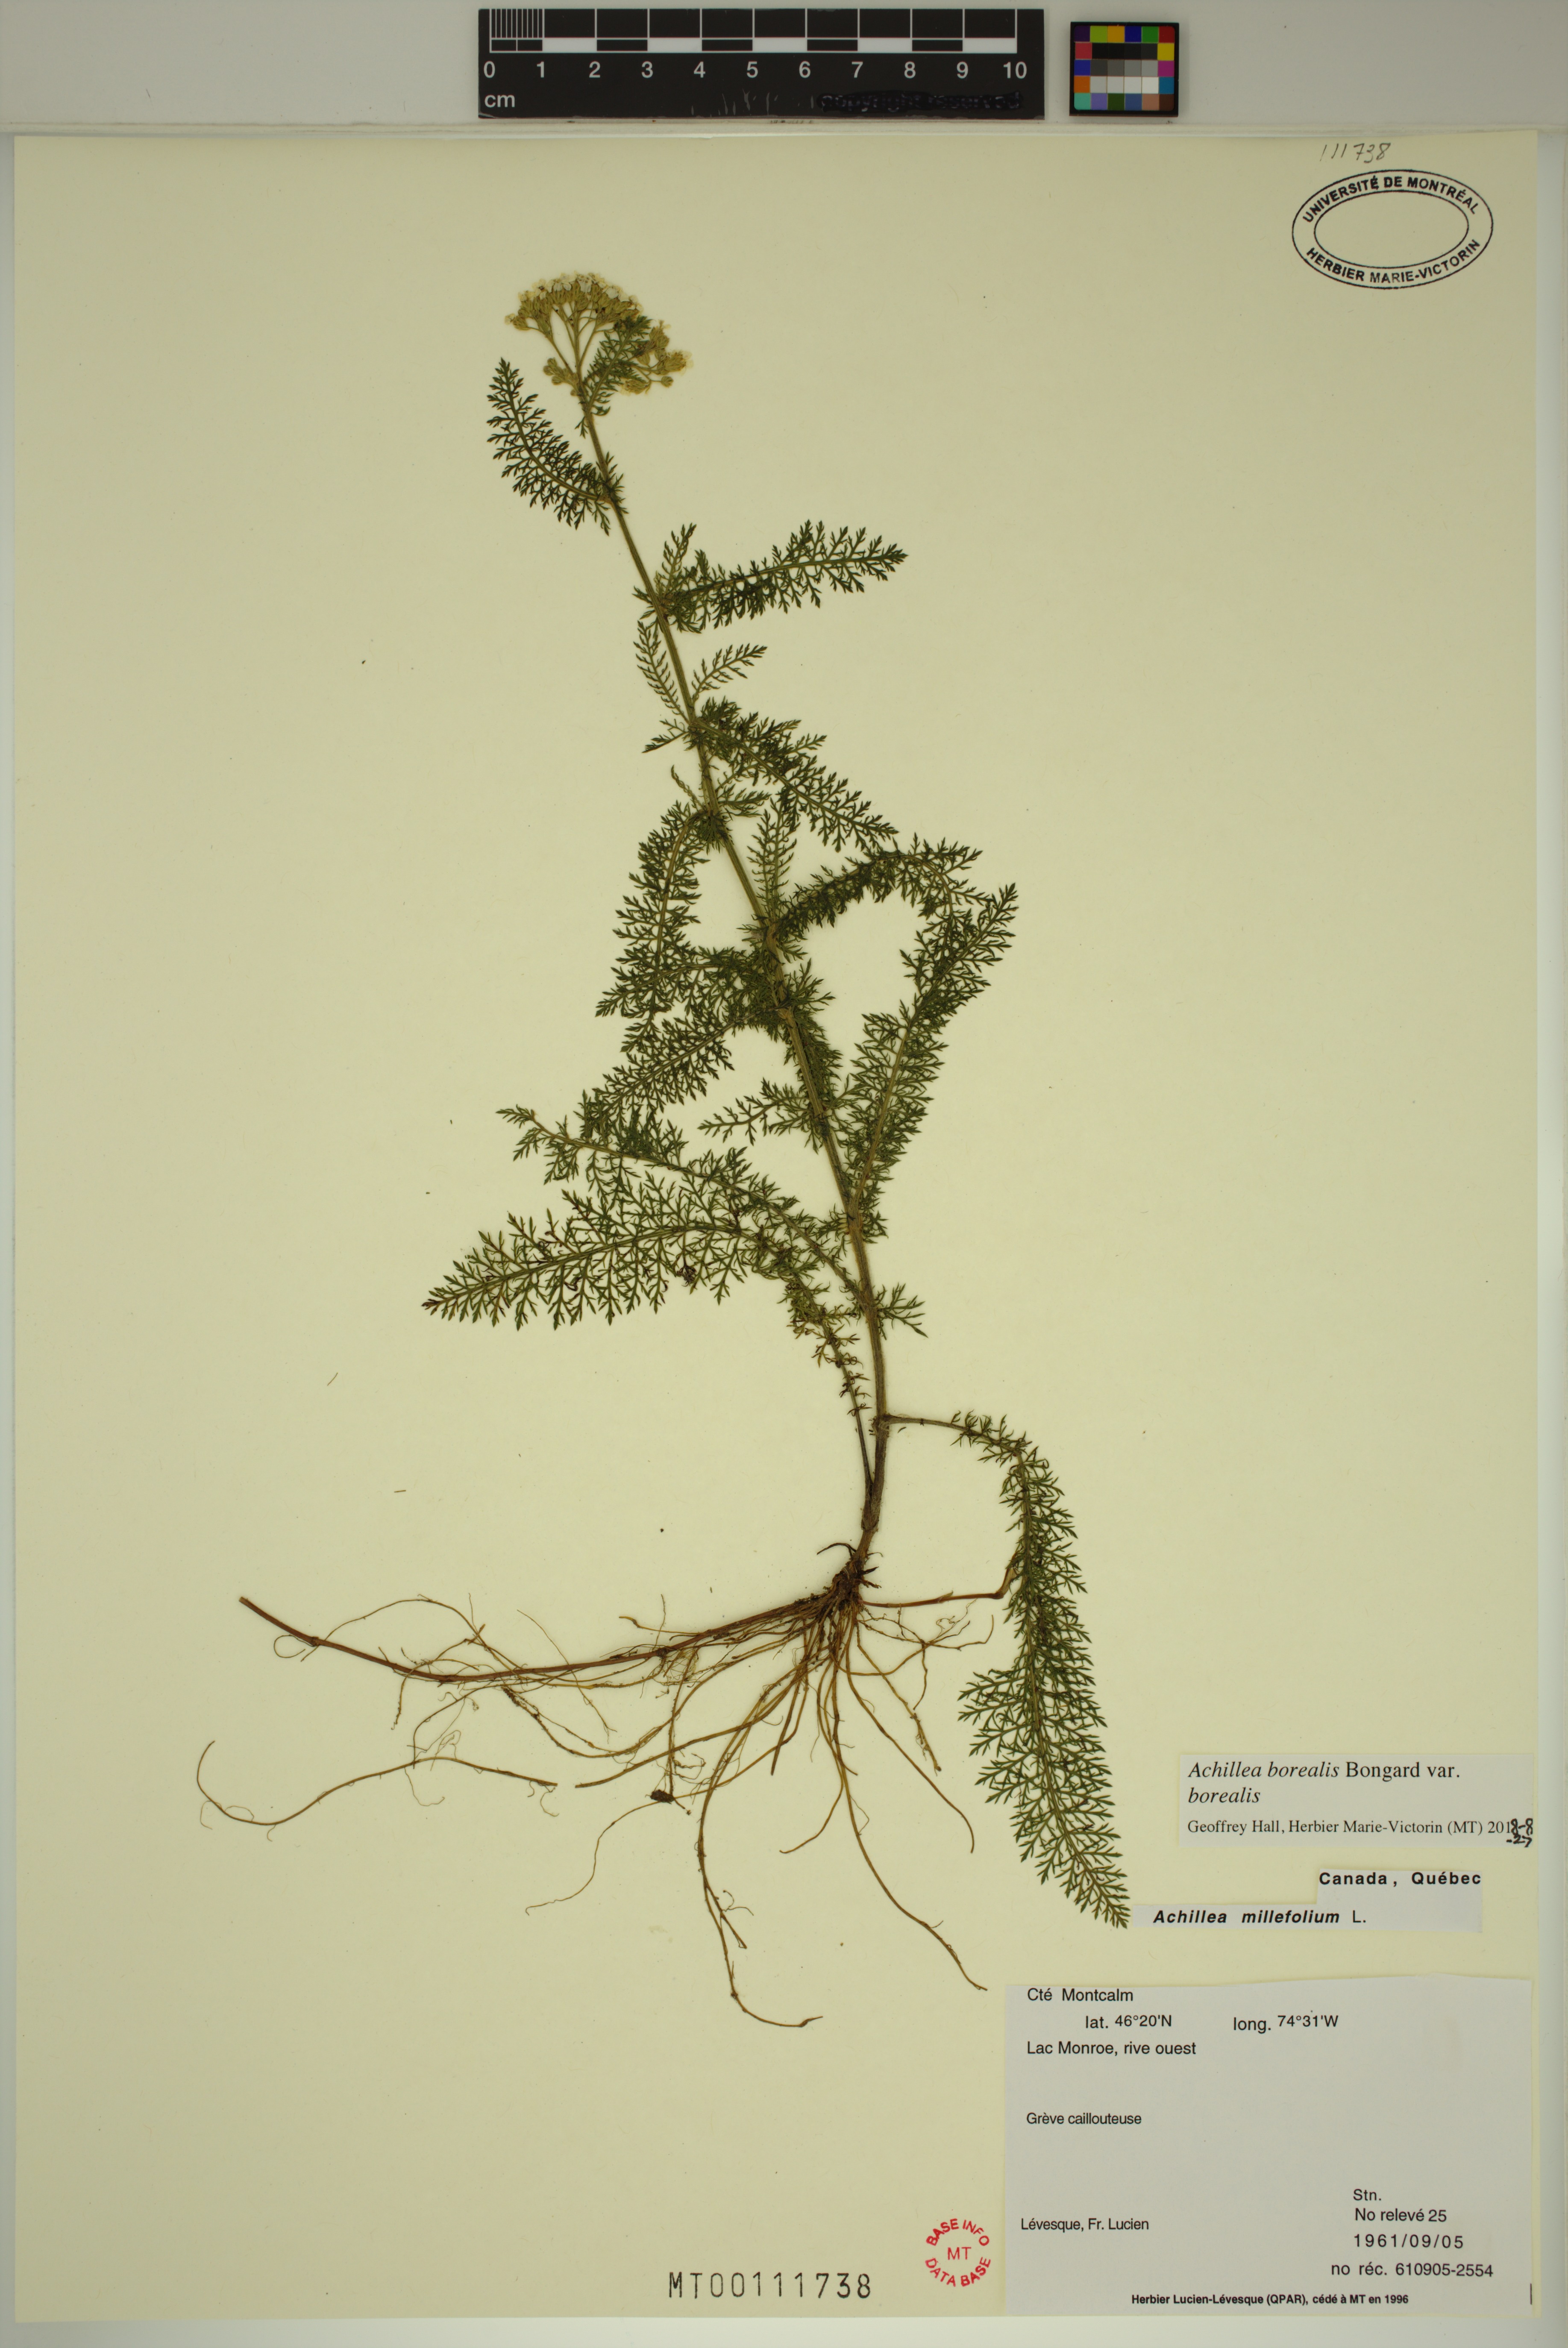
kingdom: Plantae
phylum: Tracheophyta
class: Magnoliopsida
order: Asterales
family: Asteraceae
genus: Achillea
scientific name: Achillea millefolium
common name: Yarrow
